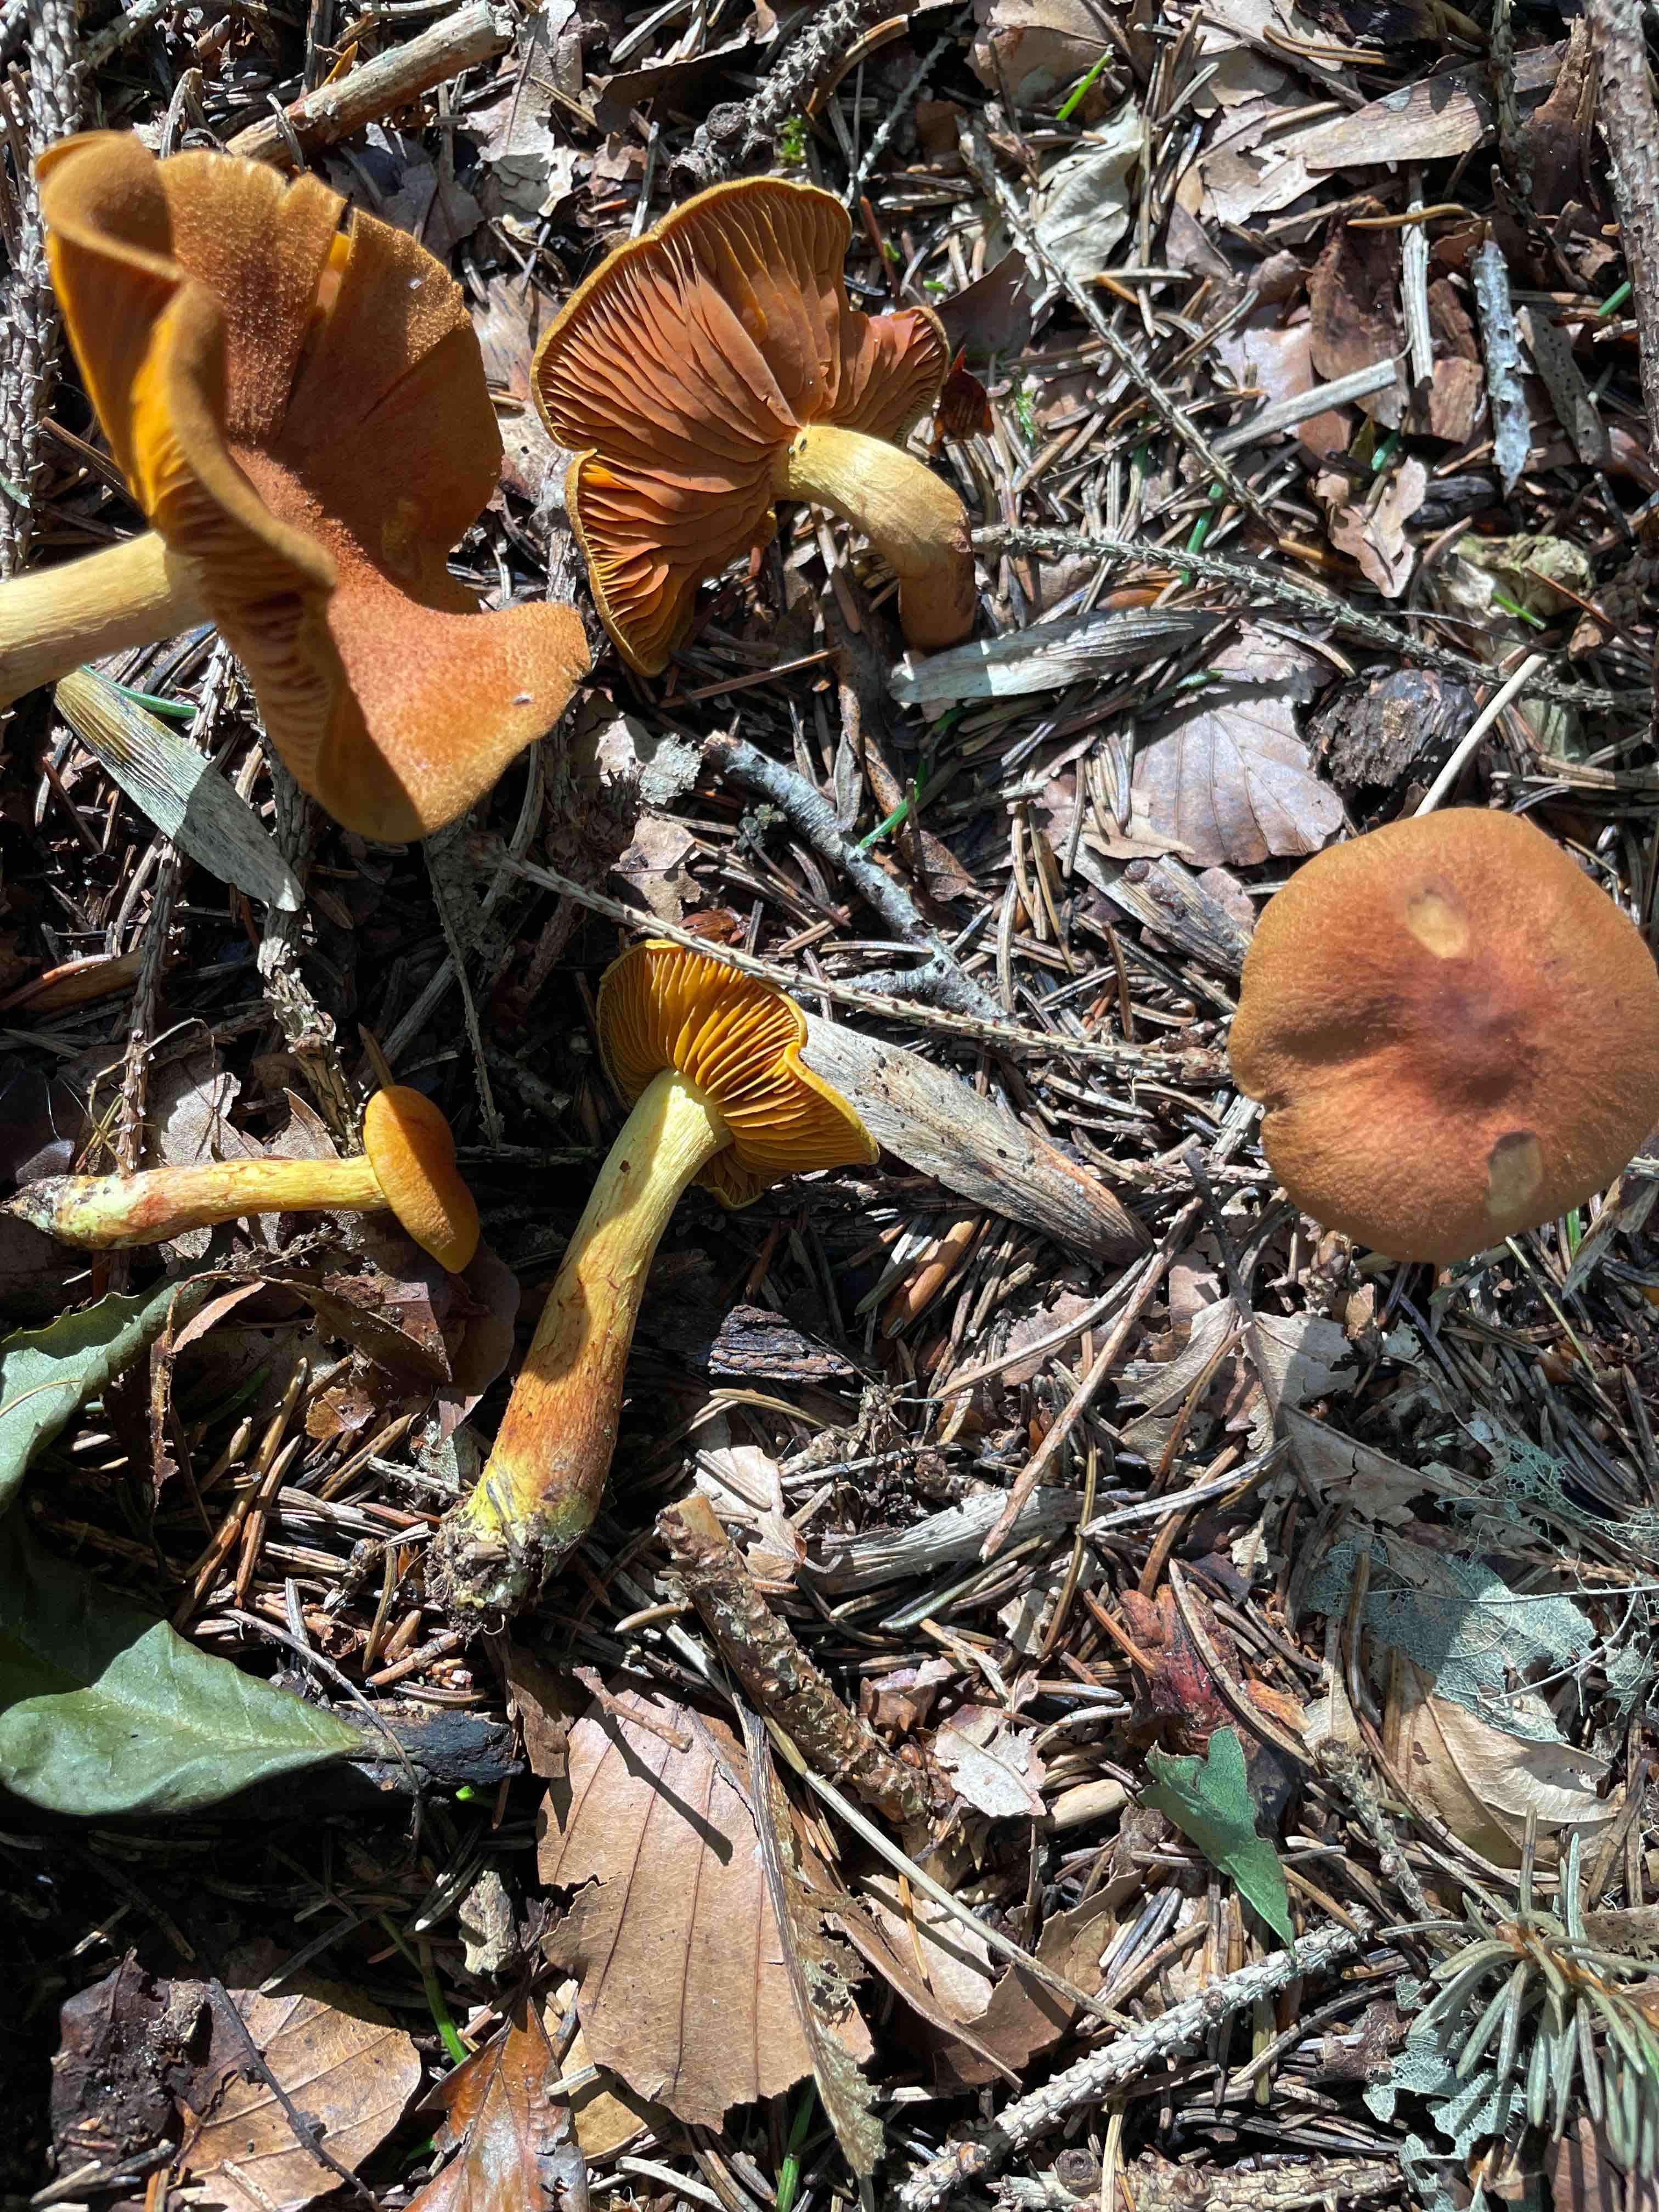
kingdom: Fungi
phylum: Basidiomycota
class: Agaricomycetes
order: Agaricales
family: Cortinariaceae
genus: Cortinarius
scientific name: Cortinarius
